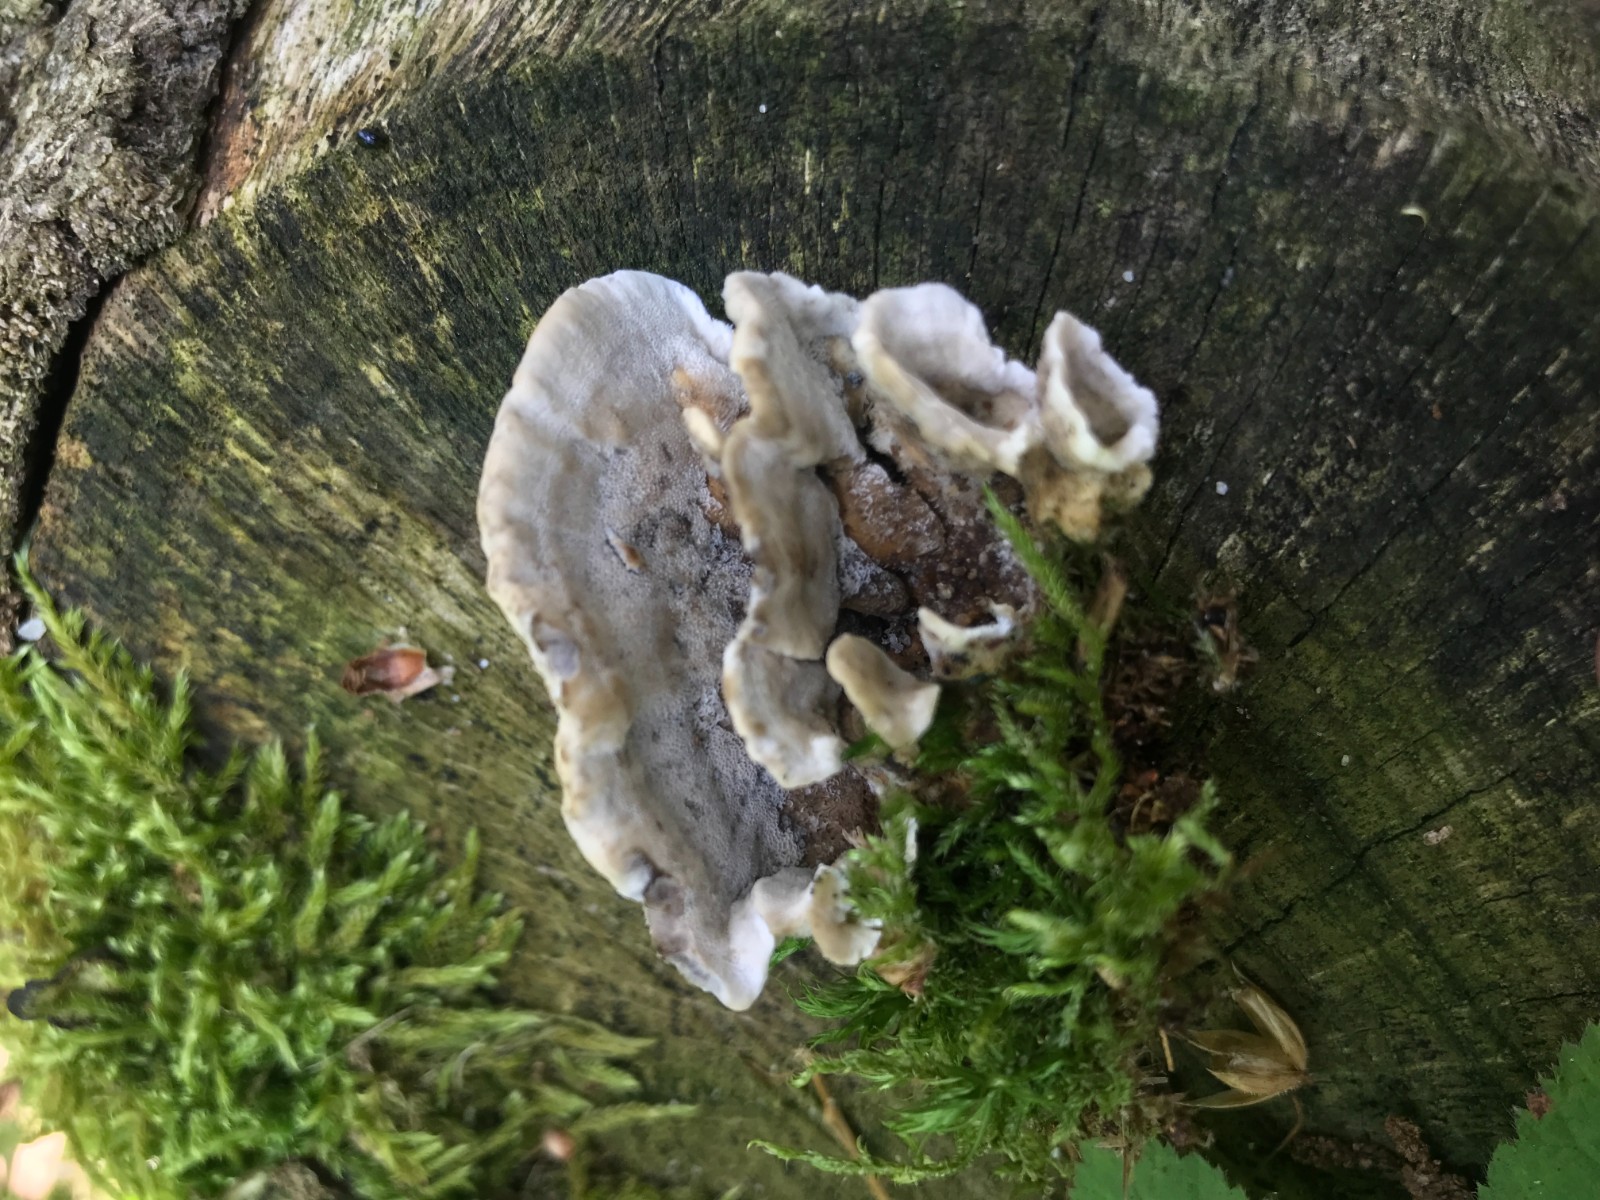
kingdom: Fungi
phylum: Basidiomycota
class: Agaricomycetes
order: Polyporales
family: Phanerochaetaceae
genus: Bjerkandera
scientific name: Bjerkandera adusta
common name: sveden sodporesvamp
